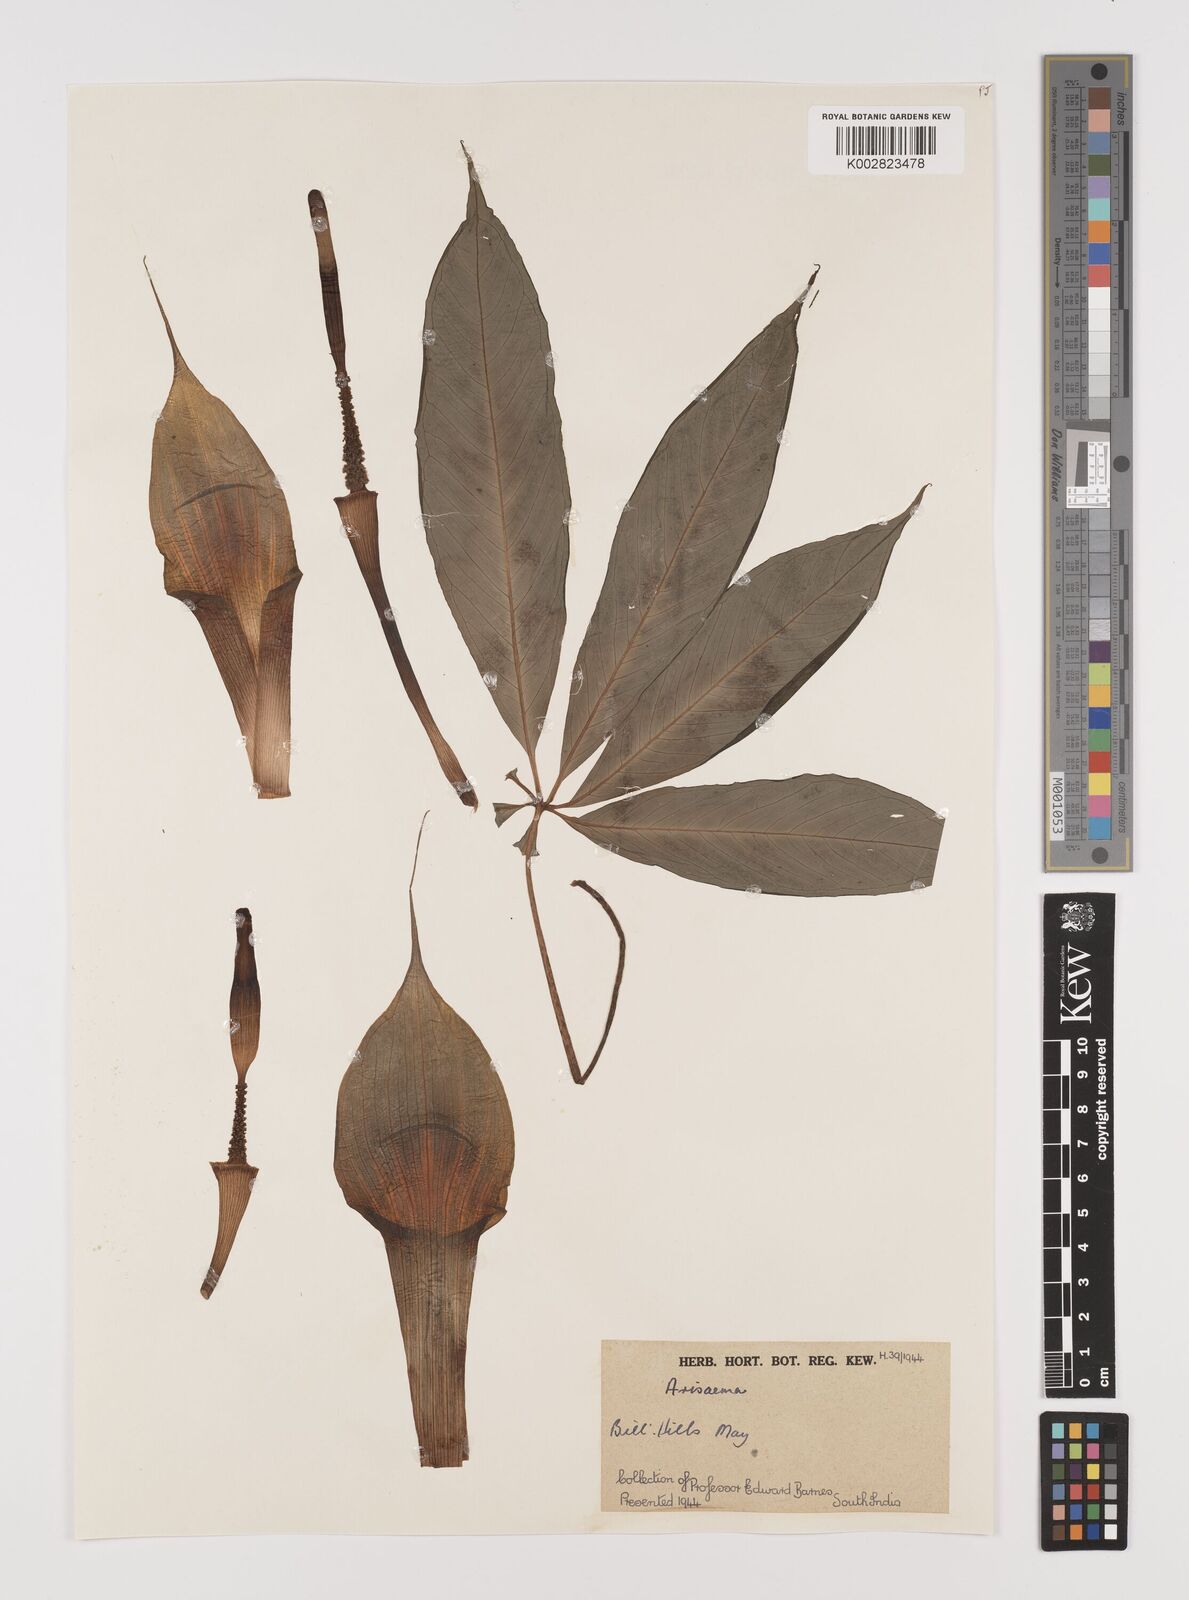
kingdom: Plantae
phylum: Tracheophyta
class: Liliopsida
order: Alismatales
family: Araceae
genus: Arisaema
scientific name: Arisaema
